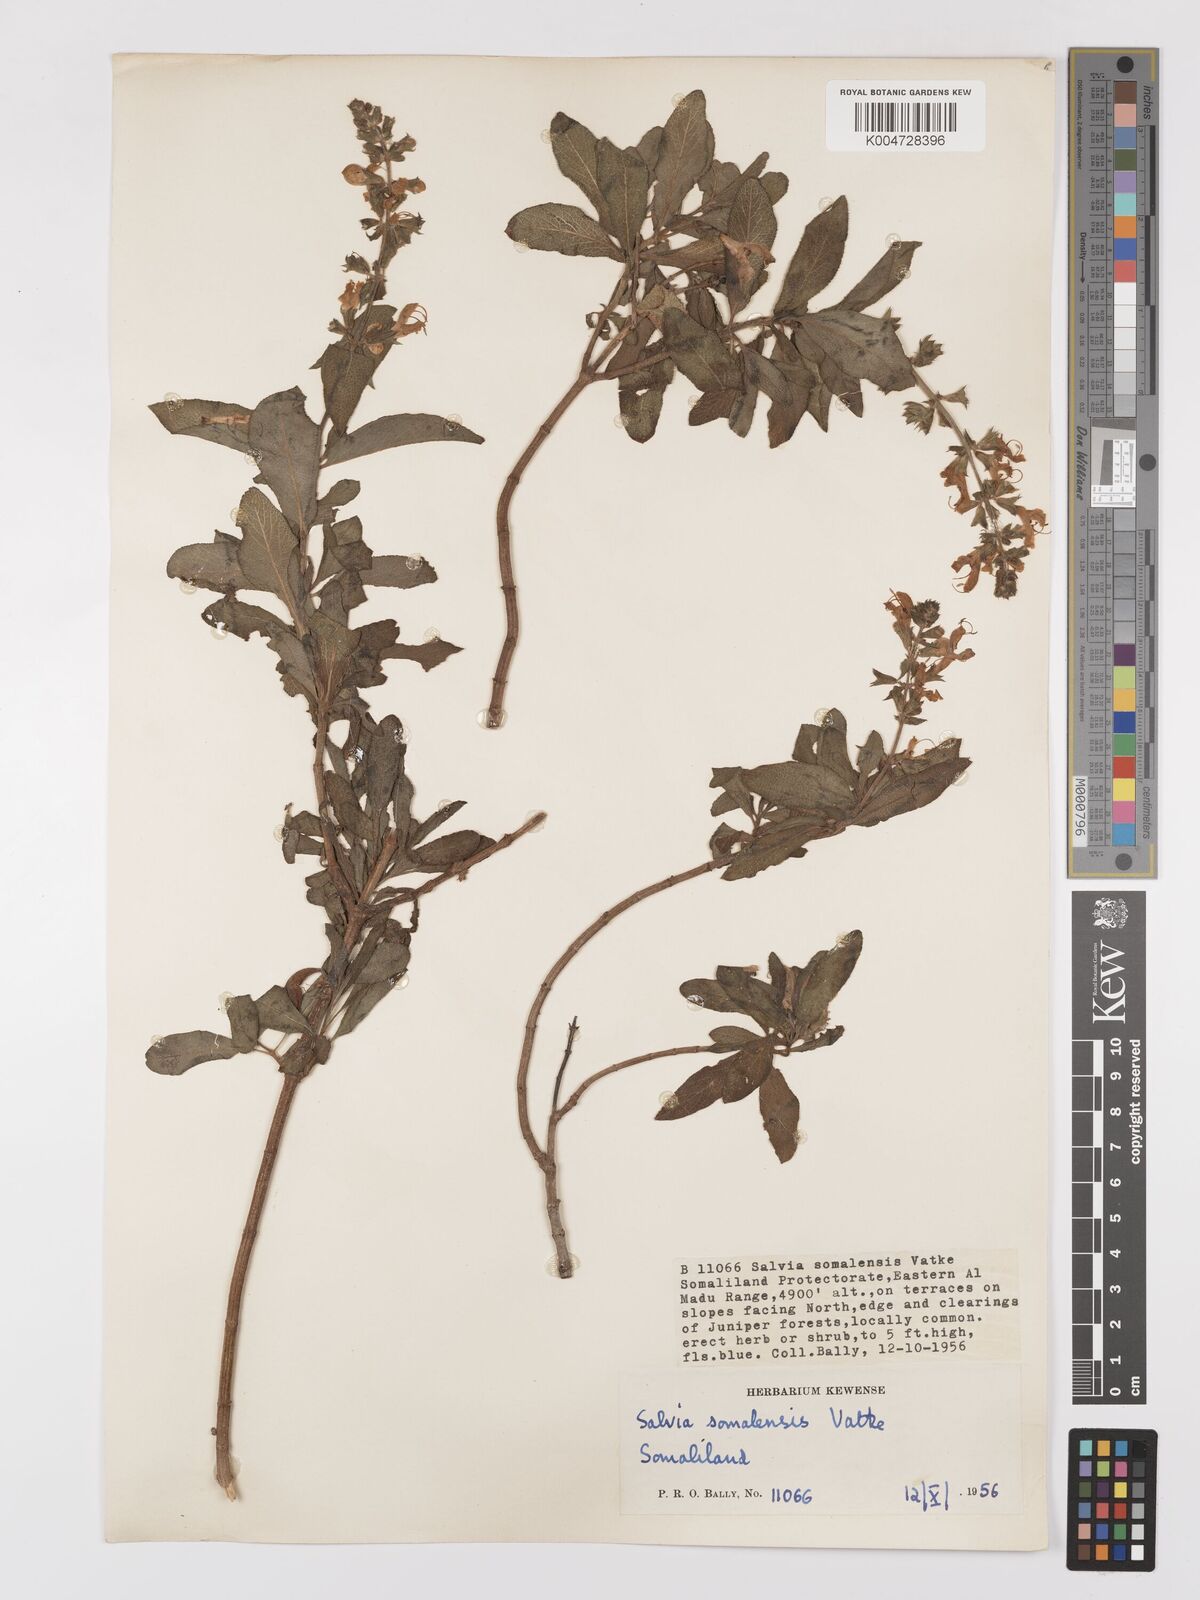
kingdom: Plantae
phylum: Tracheophyta
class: Magnoliopsida
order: Lamiales
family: Lamiaceae
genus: Salvia
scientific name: Salvia somalensis
